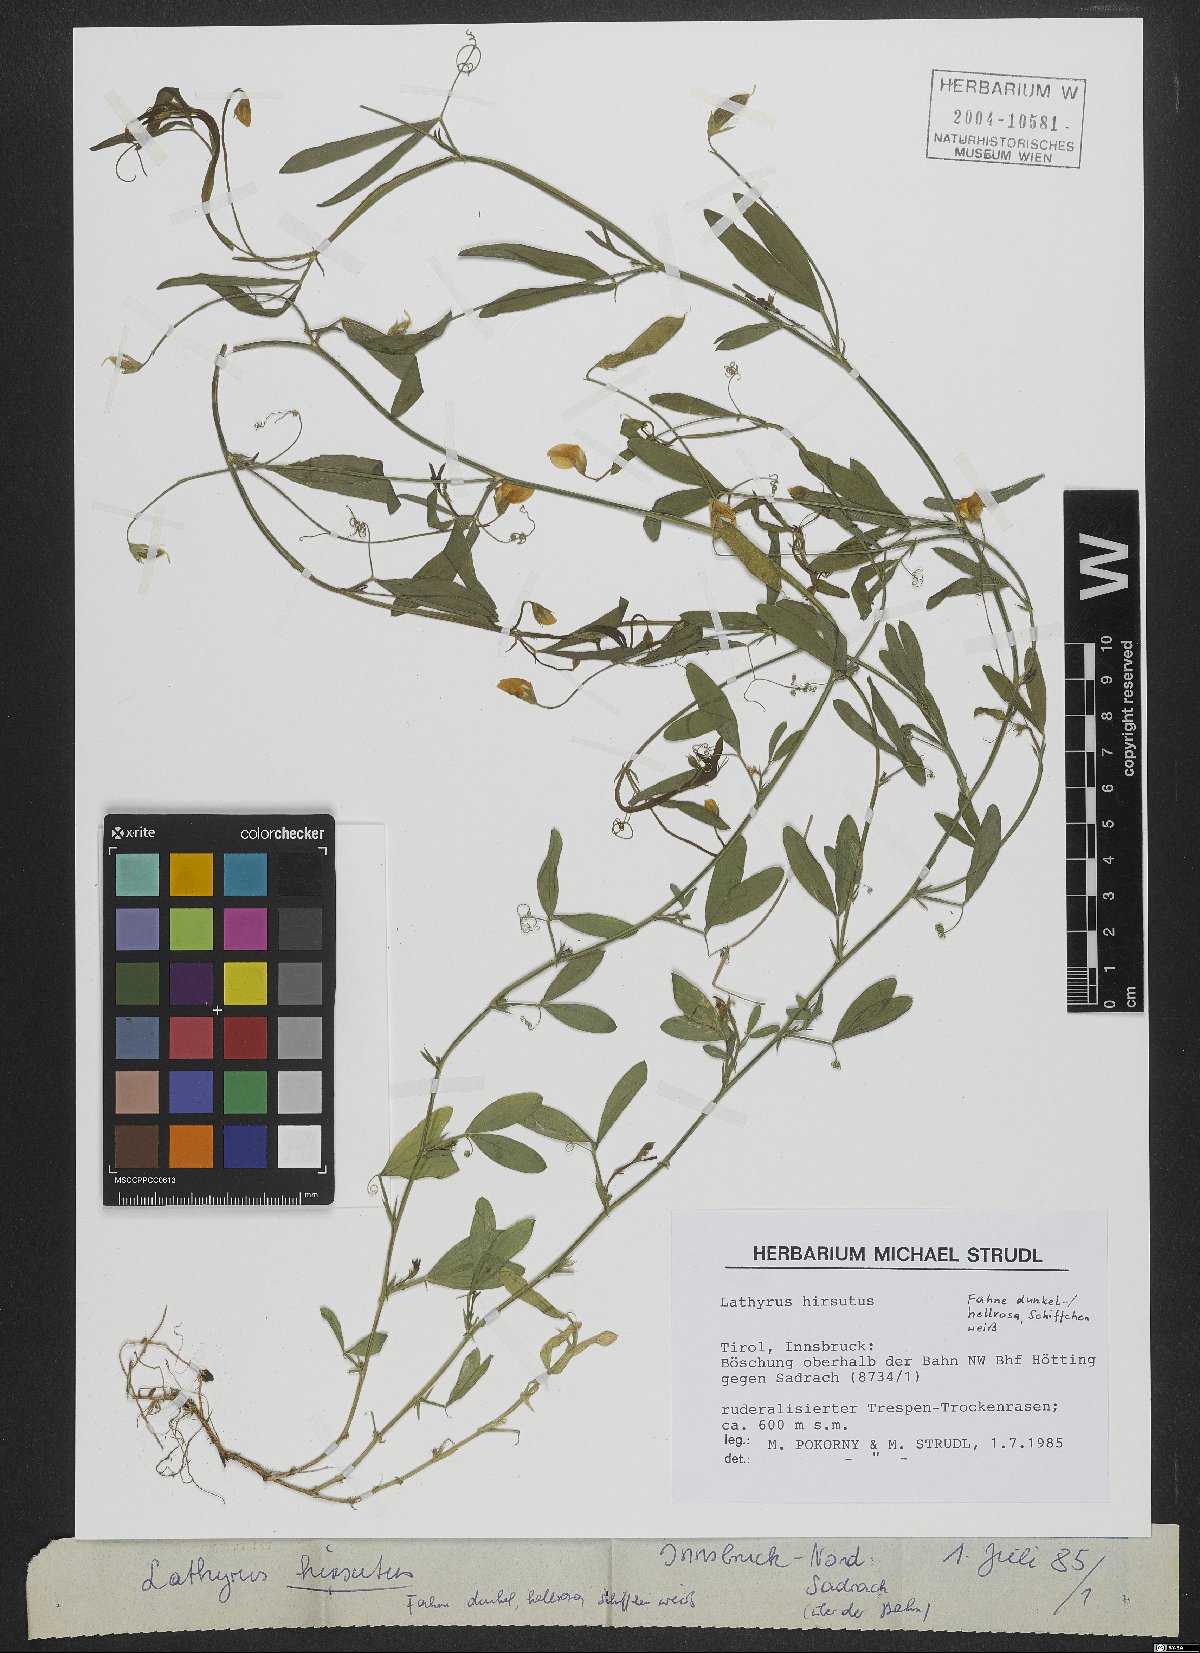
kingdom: Plantae
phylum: Tracheophyta
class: Magnoliopsida
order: Fabales
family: Fabaceae
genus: Lathyrus
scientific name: Lathyrus hirsutus
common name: Hairy vetchling
